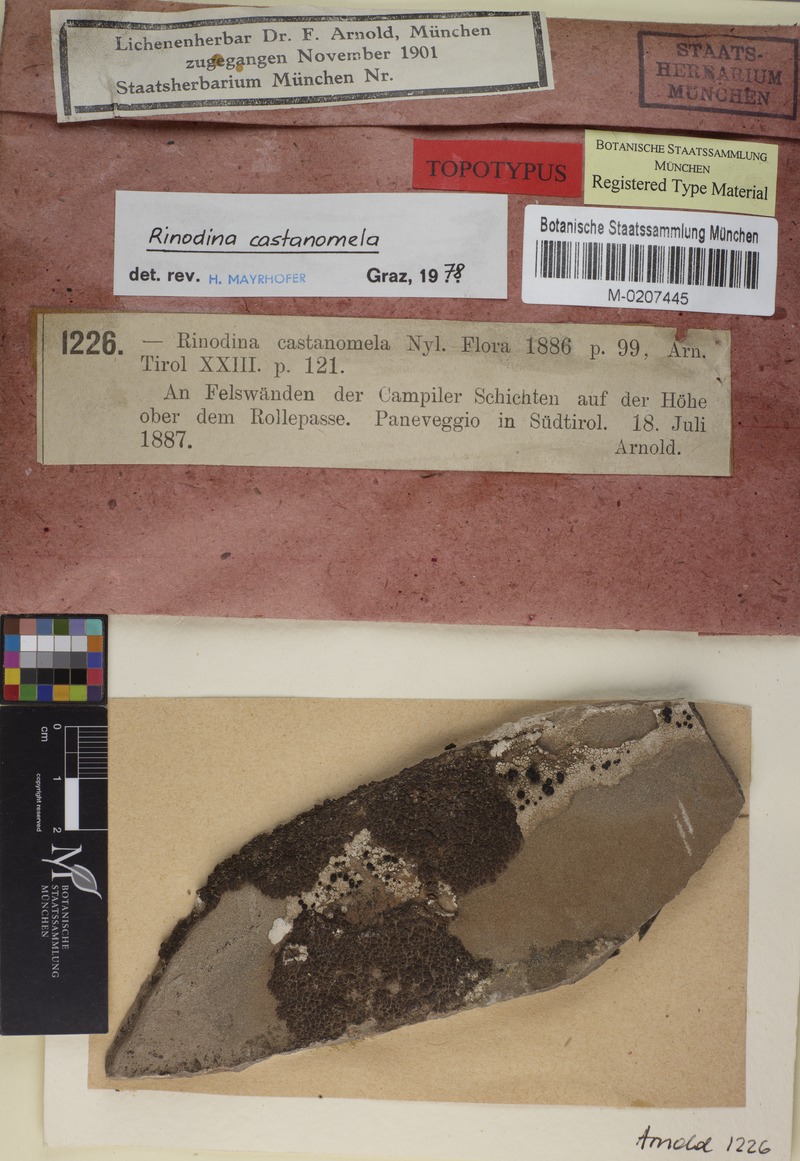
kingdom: Fungi
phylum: Ascomycota
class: Lecanoromycetes
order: Caliciales
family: Physciaceae
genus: Rinodina
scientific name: Rinodina castanomela
